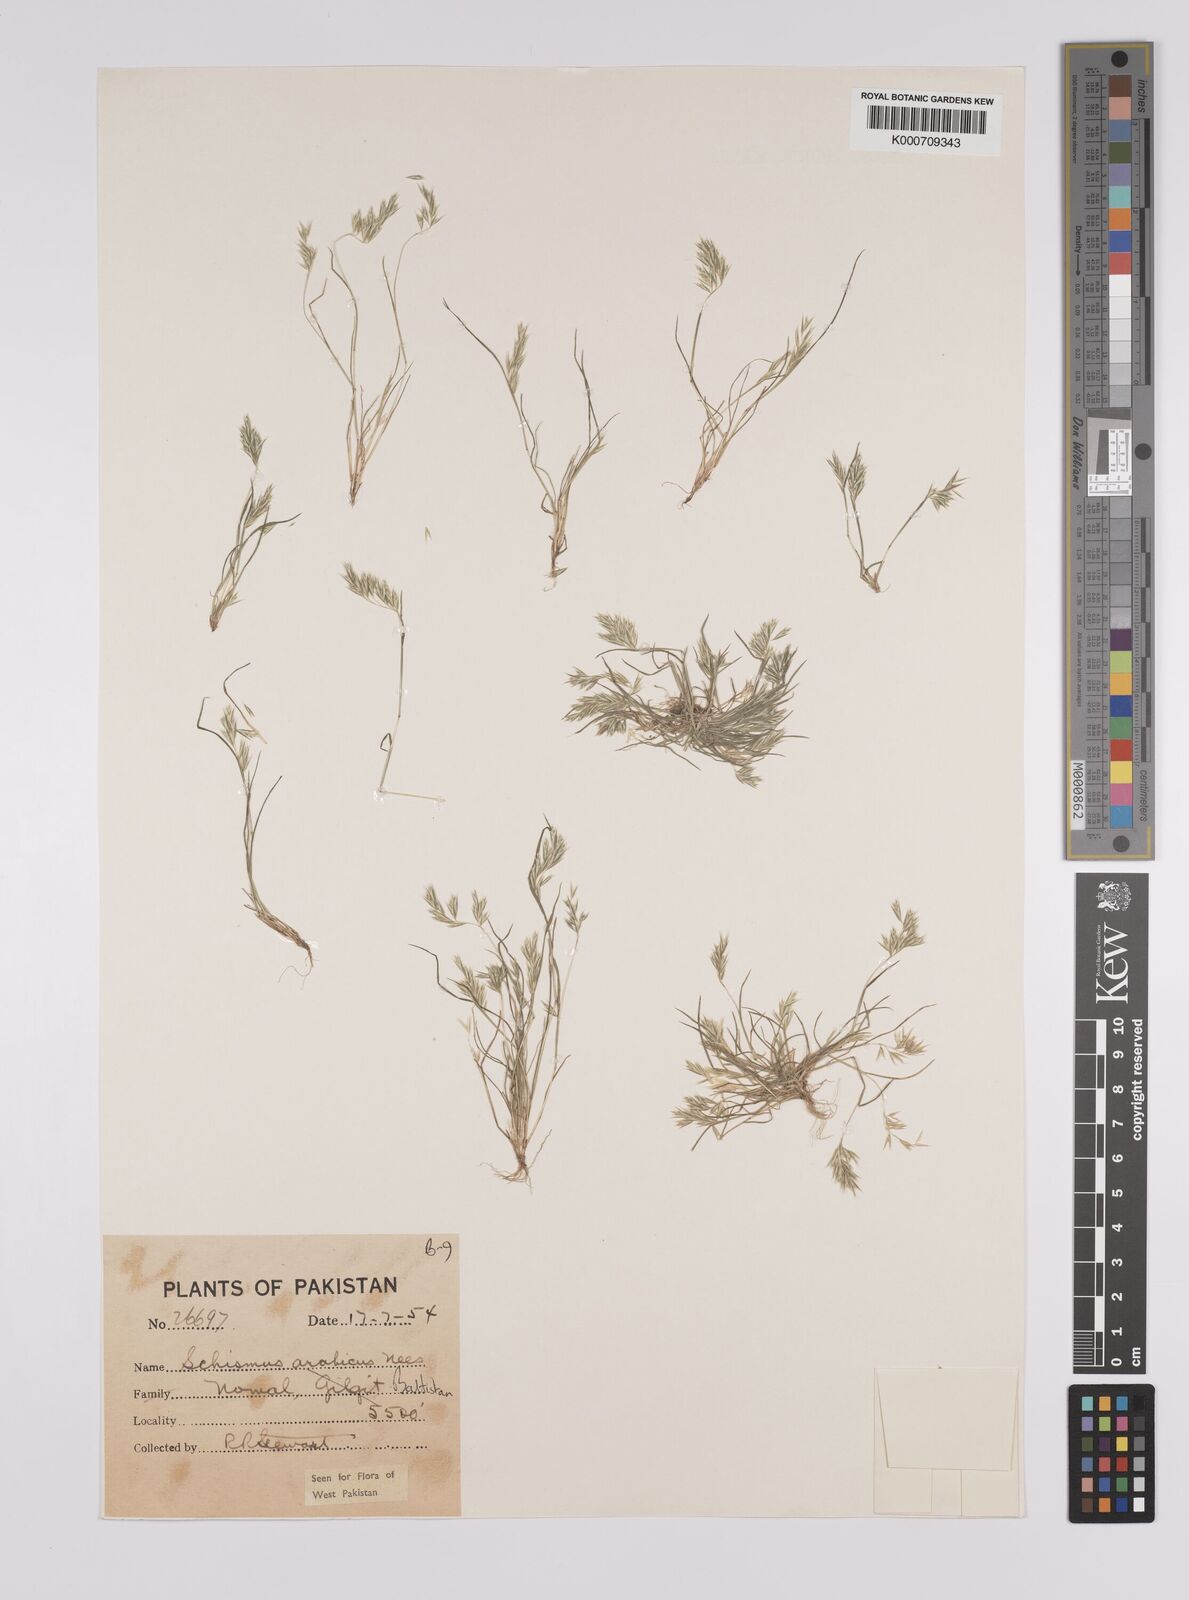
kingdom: Plantae
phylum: Tracheophyta
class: Liliopsida
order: Poales
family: Poaceae
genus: Schismus
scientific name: Schismus arabicus
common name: Arabian schismus
